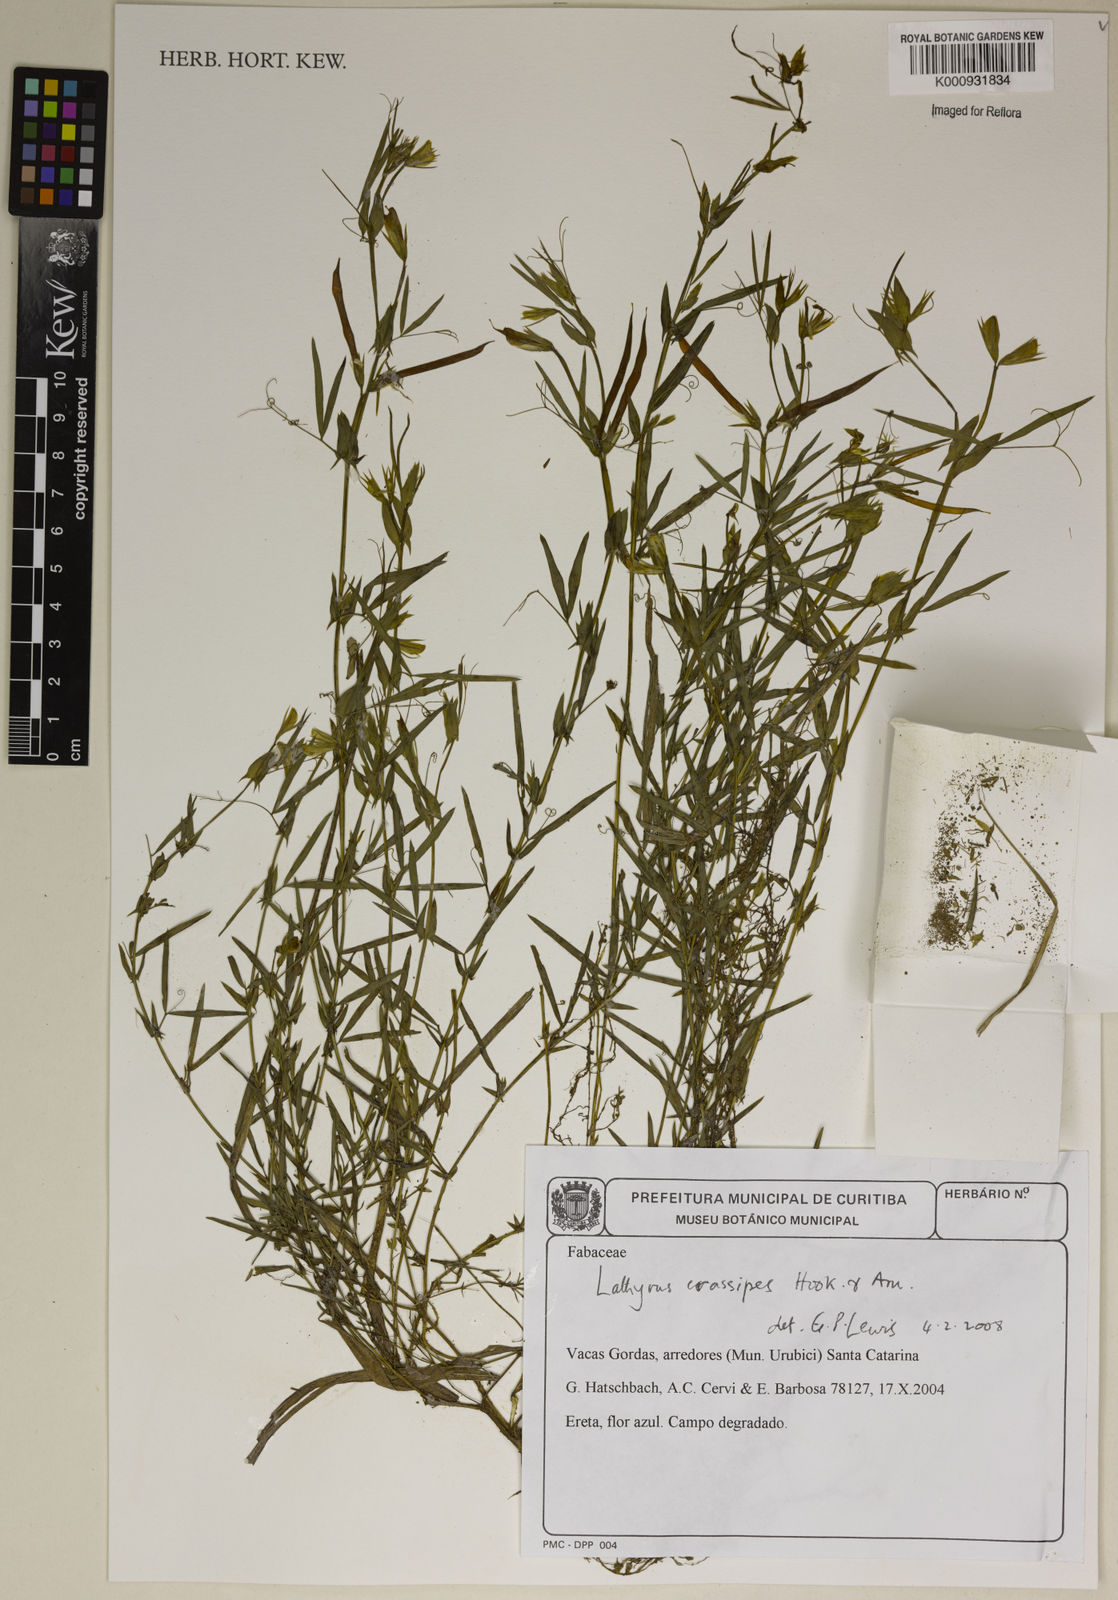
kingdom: Plantae
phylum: Tracheophyta
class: Magnoliopsida
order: Fabales
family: Fabaceae
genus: Lathyrus
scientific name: Lathyrus
